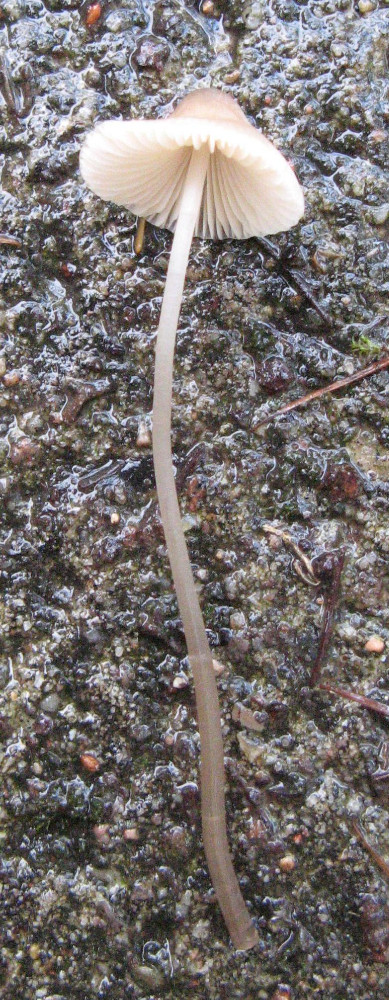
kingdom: Fungi
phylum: Basidiomycota
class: Agaricomycetes
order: Agaricales
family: Mycenaceae
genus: Mycena
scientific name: Mycena filopes
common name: jod-huesvamp
